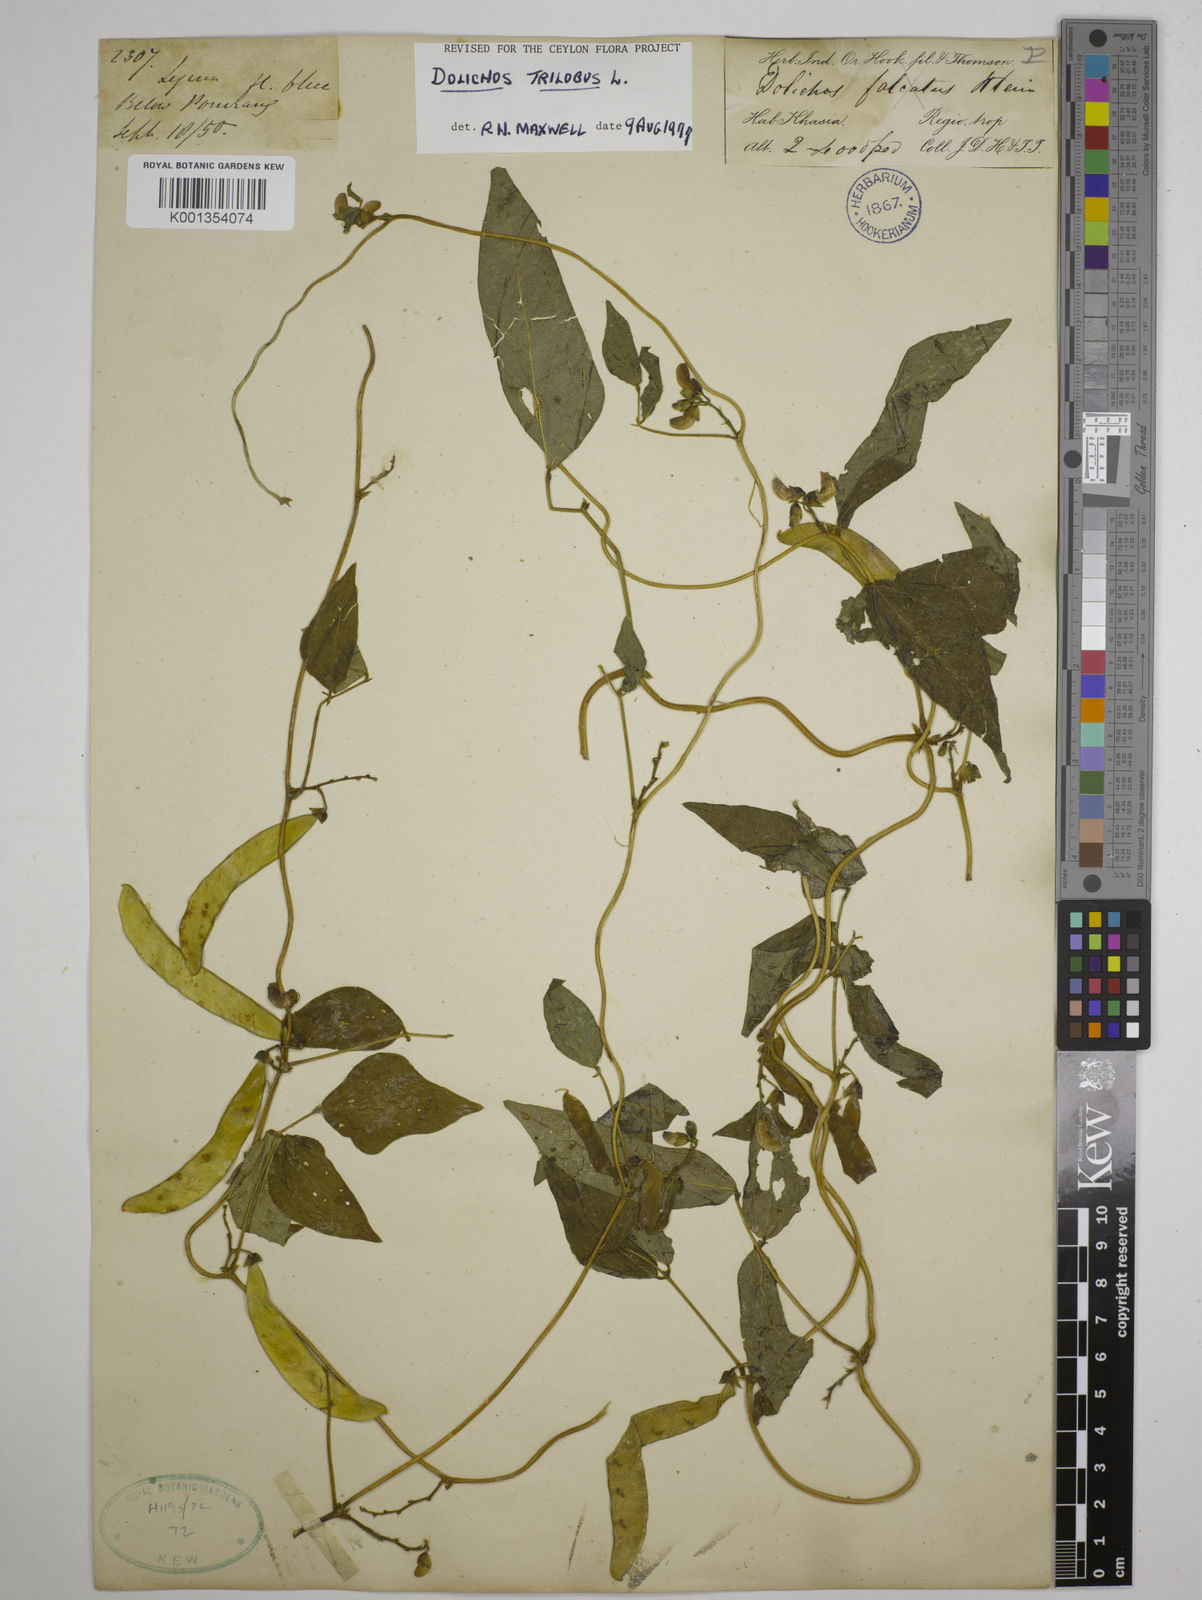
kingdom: Plantae
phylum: Tracheophyta
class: Magnoliopsida
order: Fabales
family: Fabaceae
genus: Dolichos
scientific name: Dolichos
